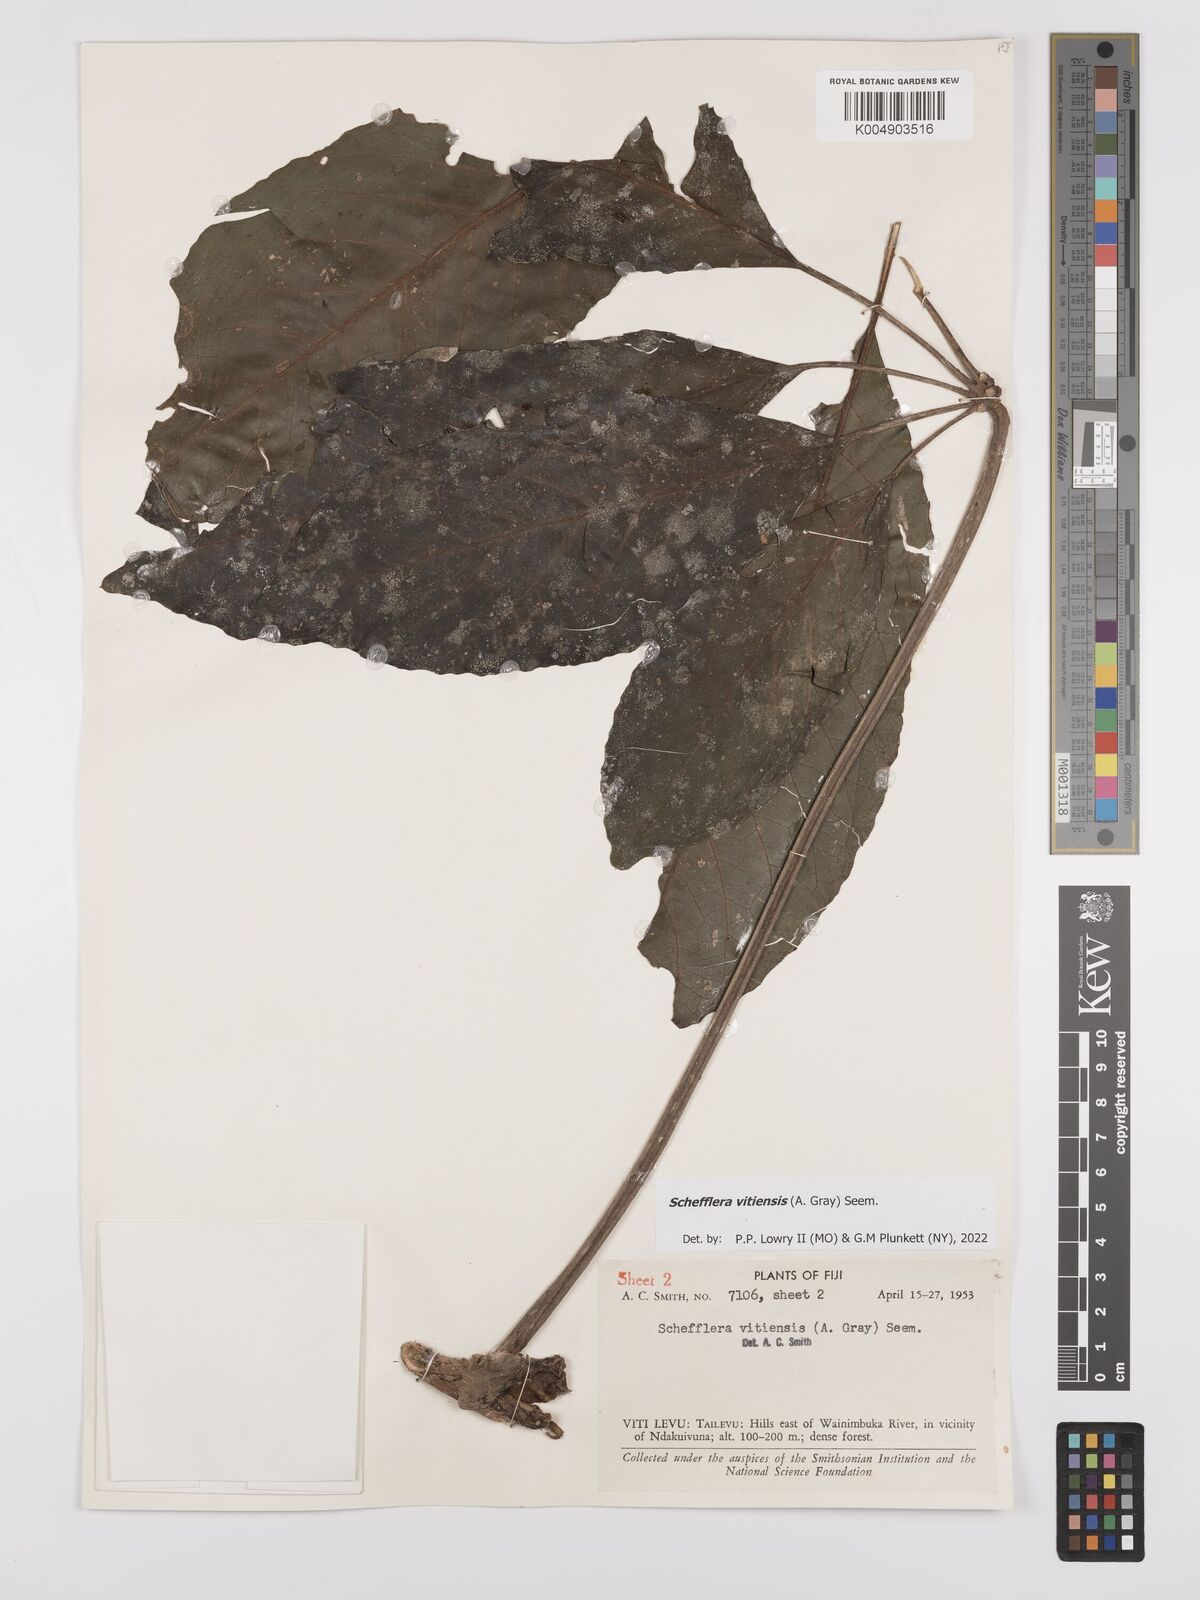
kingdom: Plantae
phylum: Tracheophyta
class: Magnoliopsida
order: Apiales
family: Araliaceae
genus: Schefflera
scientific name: Schefflera vitiensis
